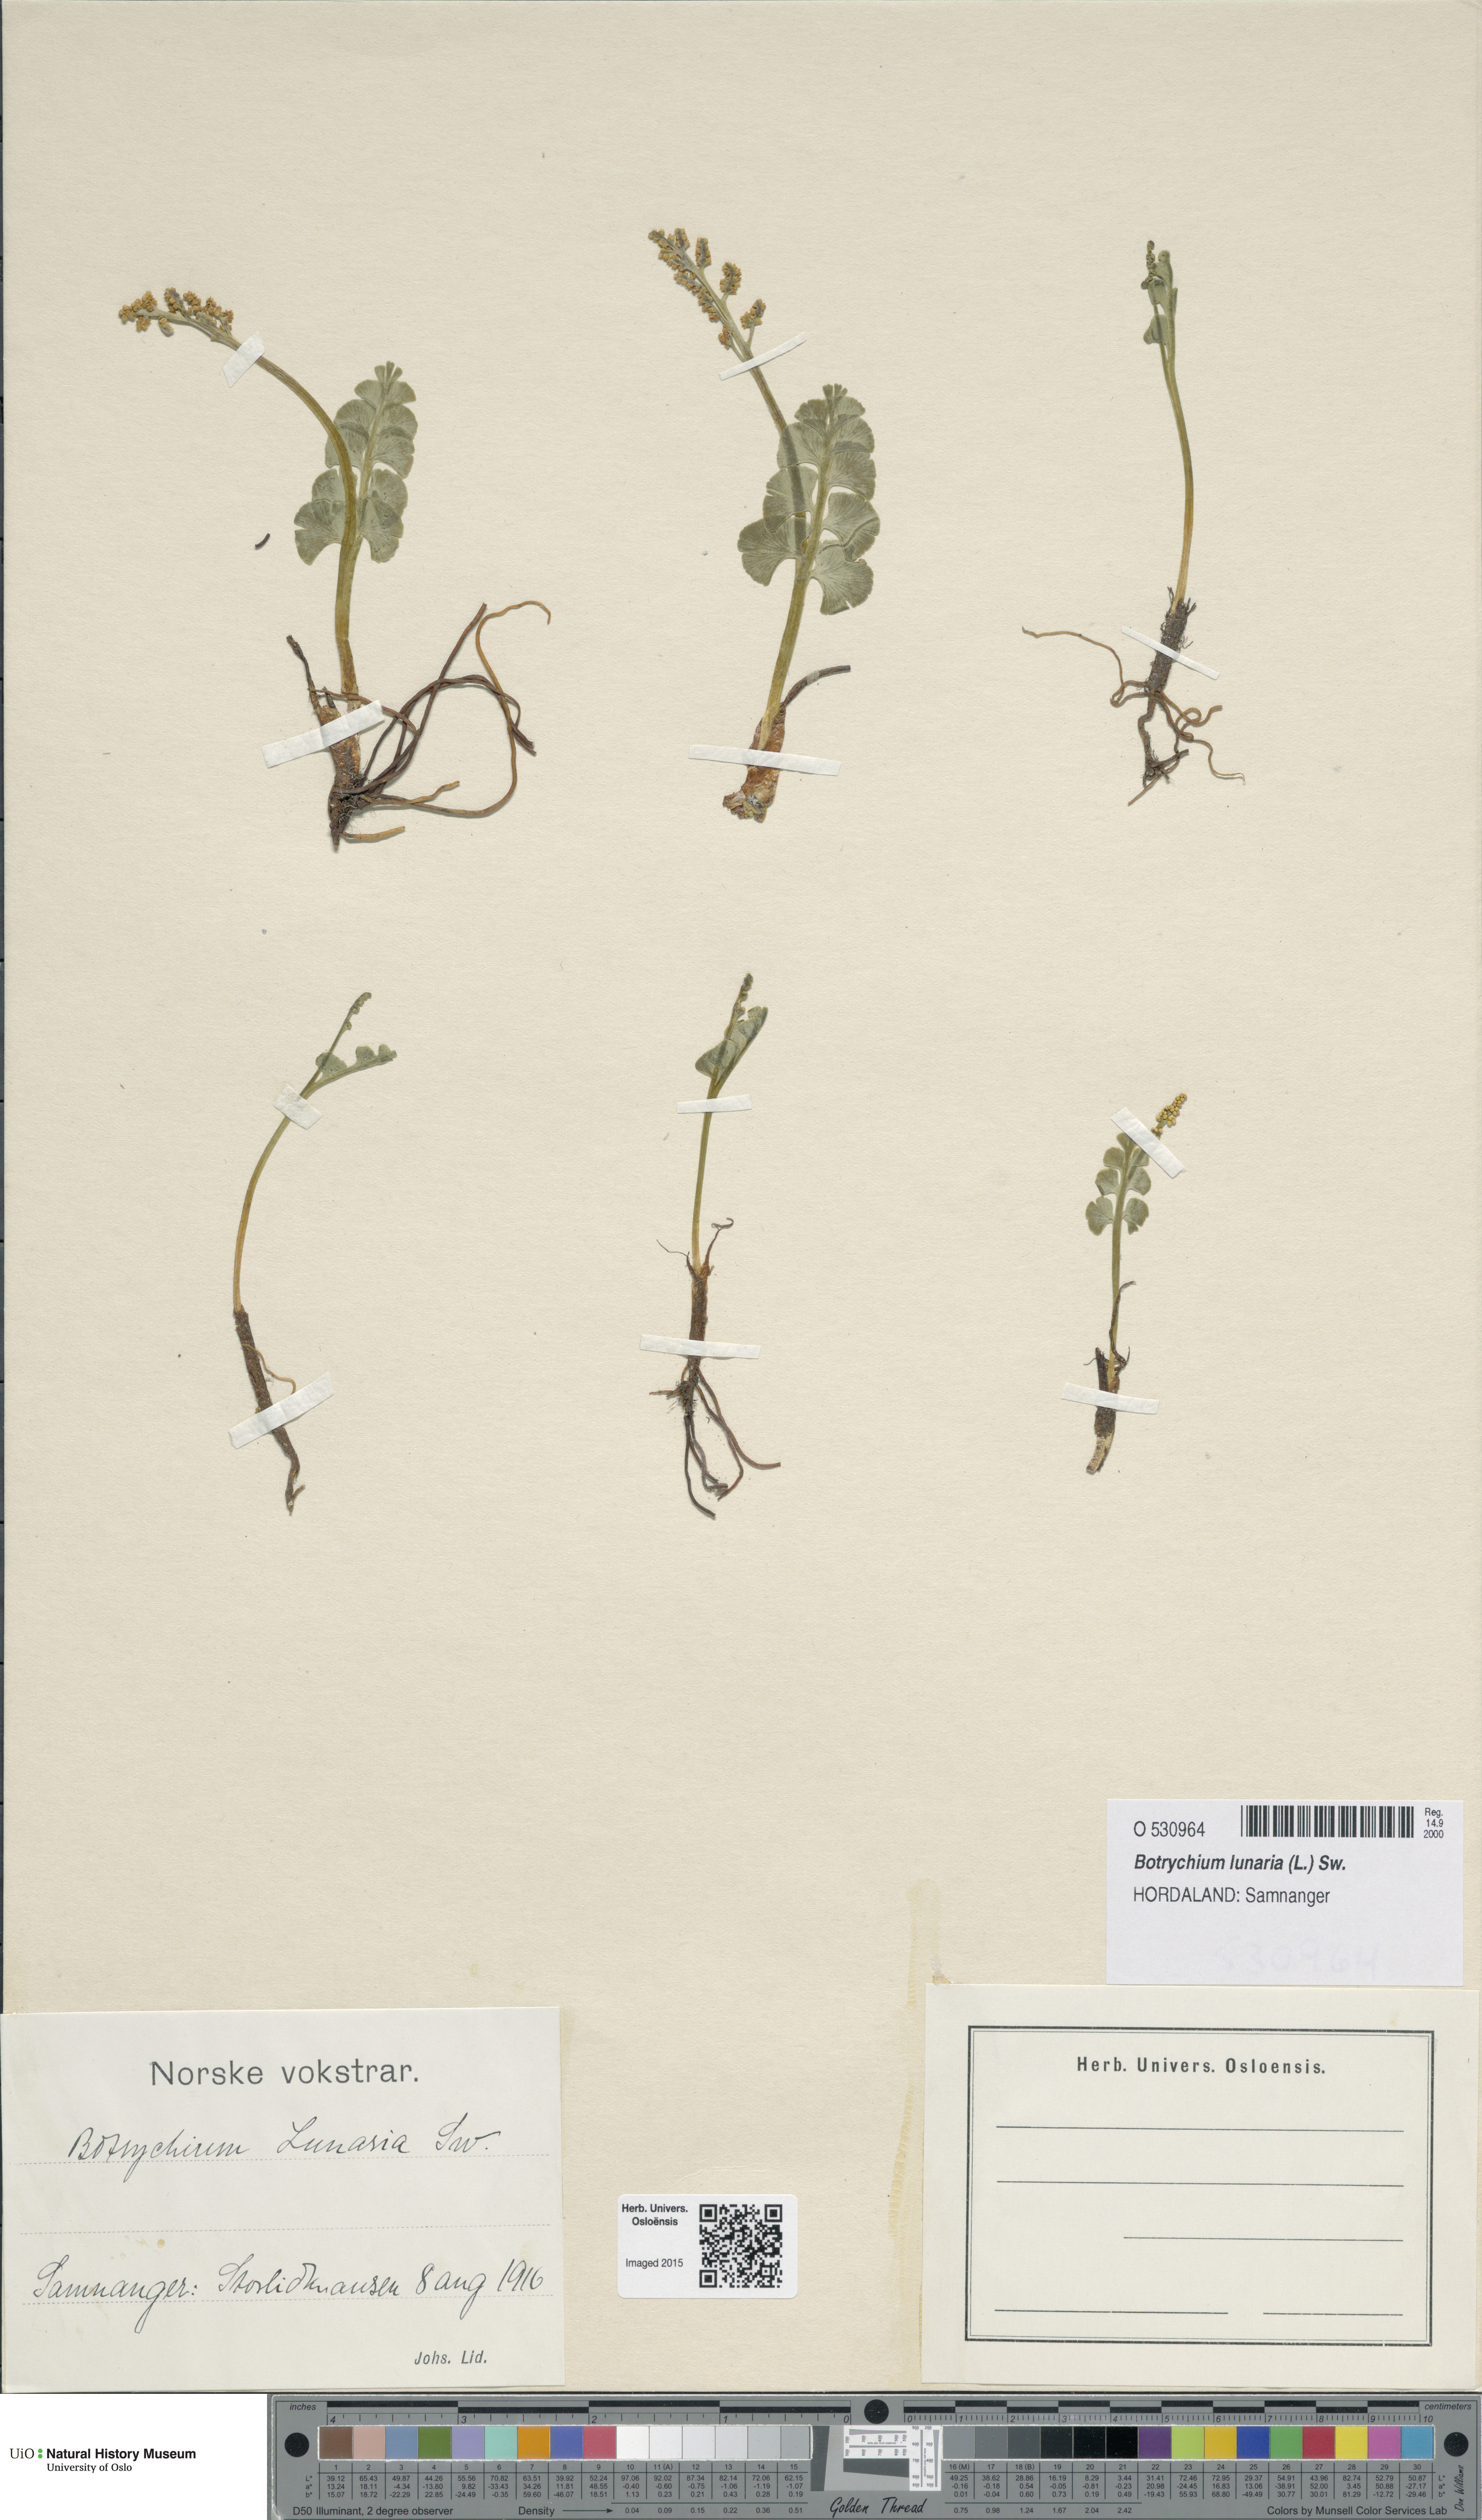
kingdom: Plantae
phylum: Tracheophyta
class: Polypodiopsida
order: Ophioglossales
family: Ophioglossaceae
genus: Botrychium
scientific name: Botrychium lunaria
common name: Moonwort
